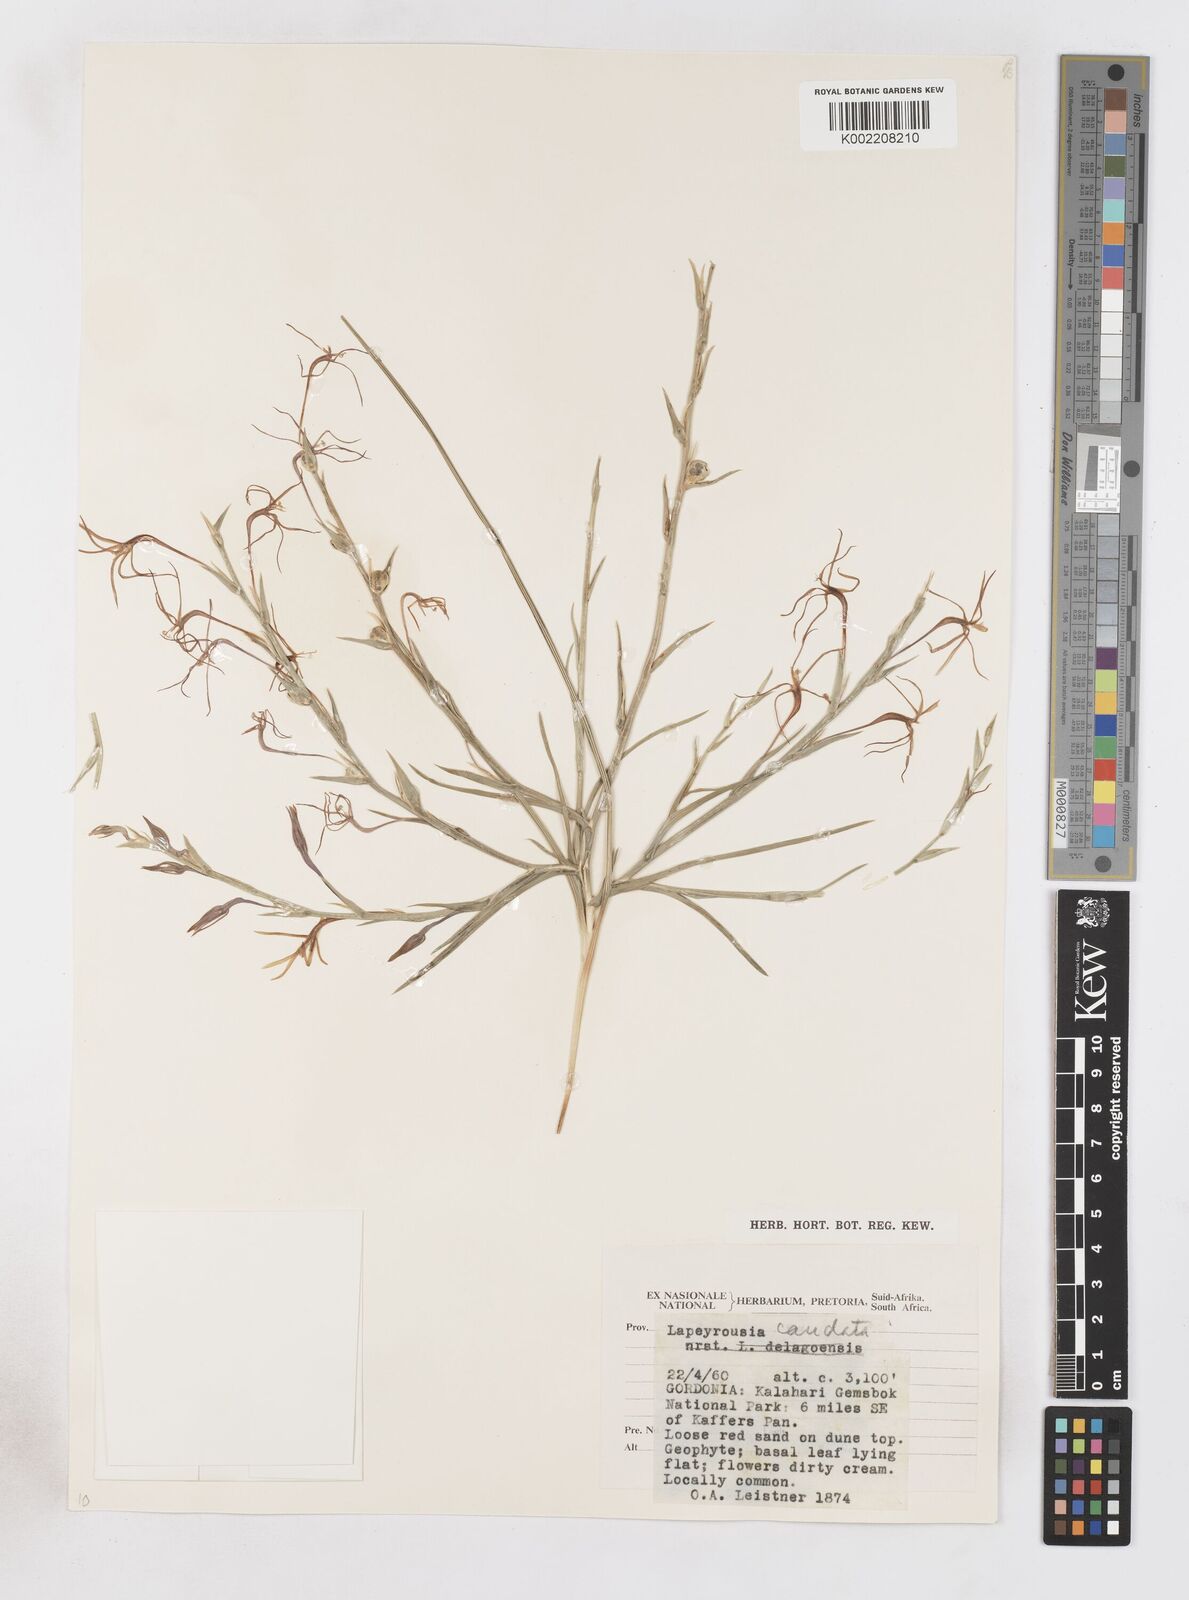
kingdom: Plantae
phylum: Tracheophyta
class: Liliopsida
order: Asparagales
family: Iridaceae
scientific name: Iridaceae
